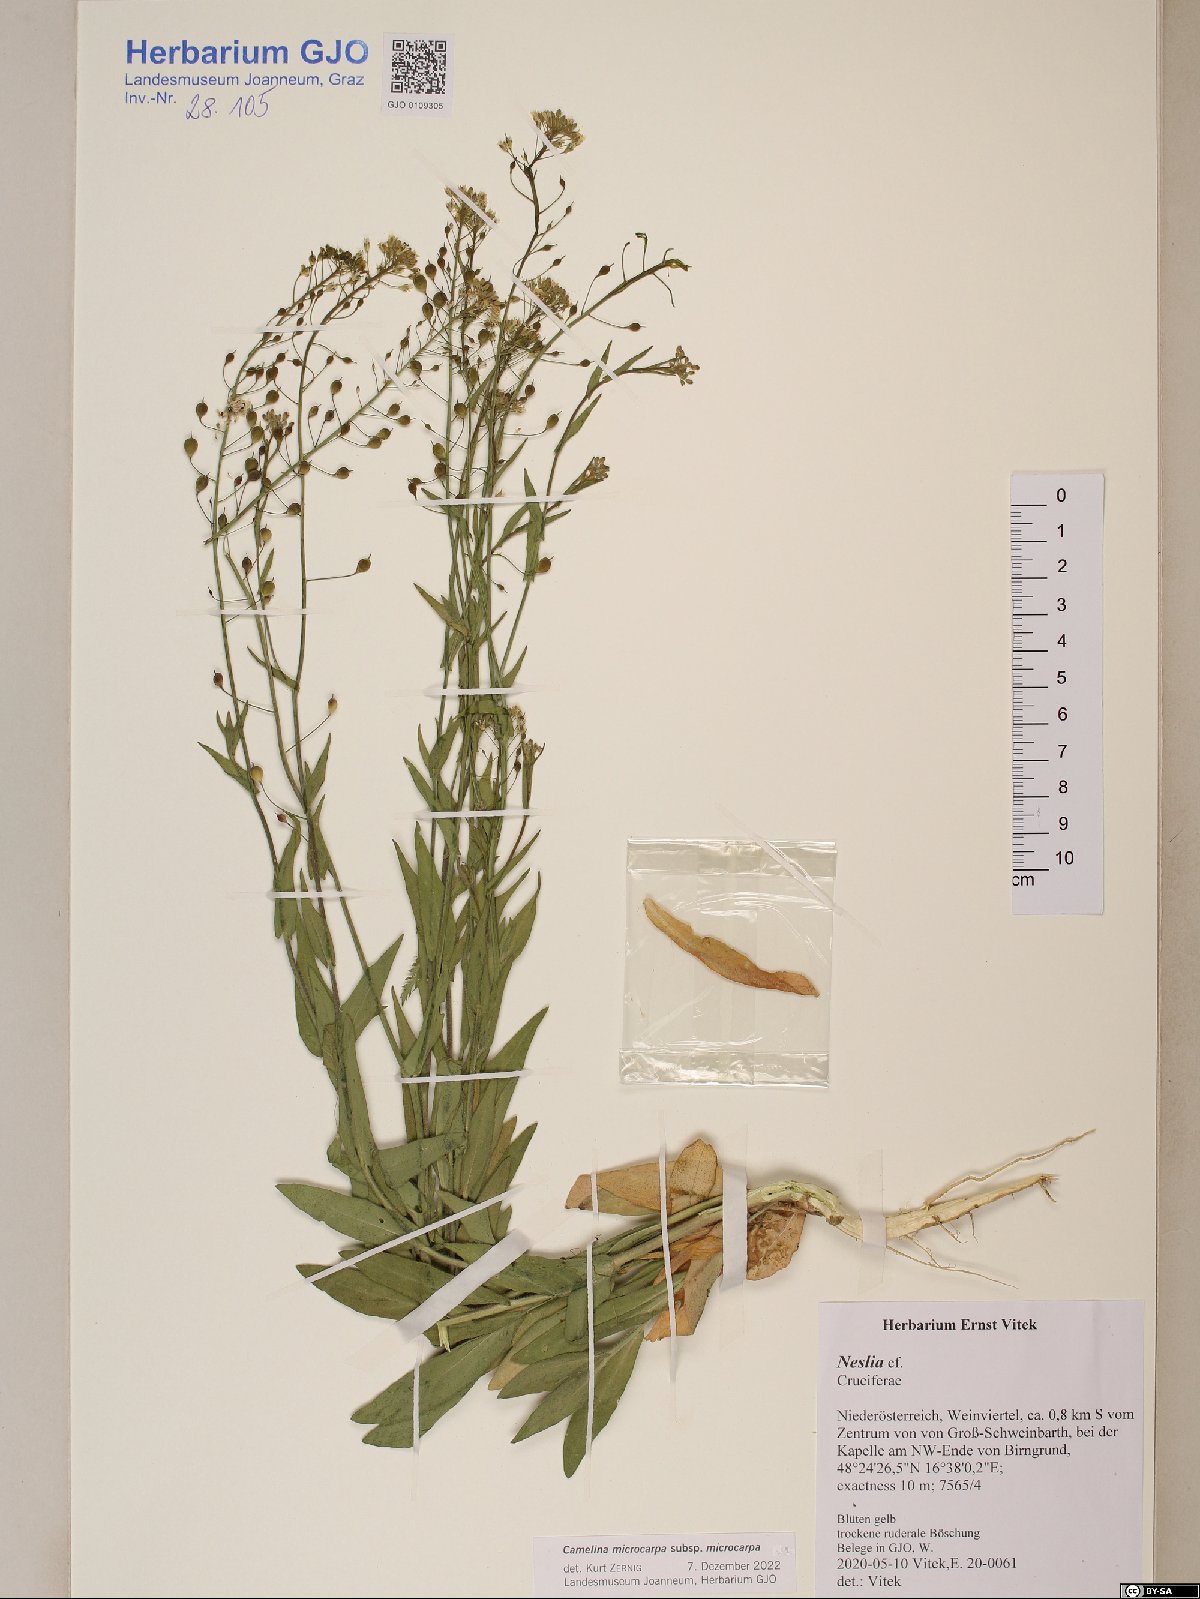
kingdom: Plantae
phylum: Tracheophyta
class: Magnoliopsida
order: Brassicales
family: Brassicaceae
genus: Camelina
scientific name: Camelina microcarpa
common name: Lesser gold-of-pleasure
